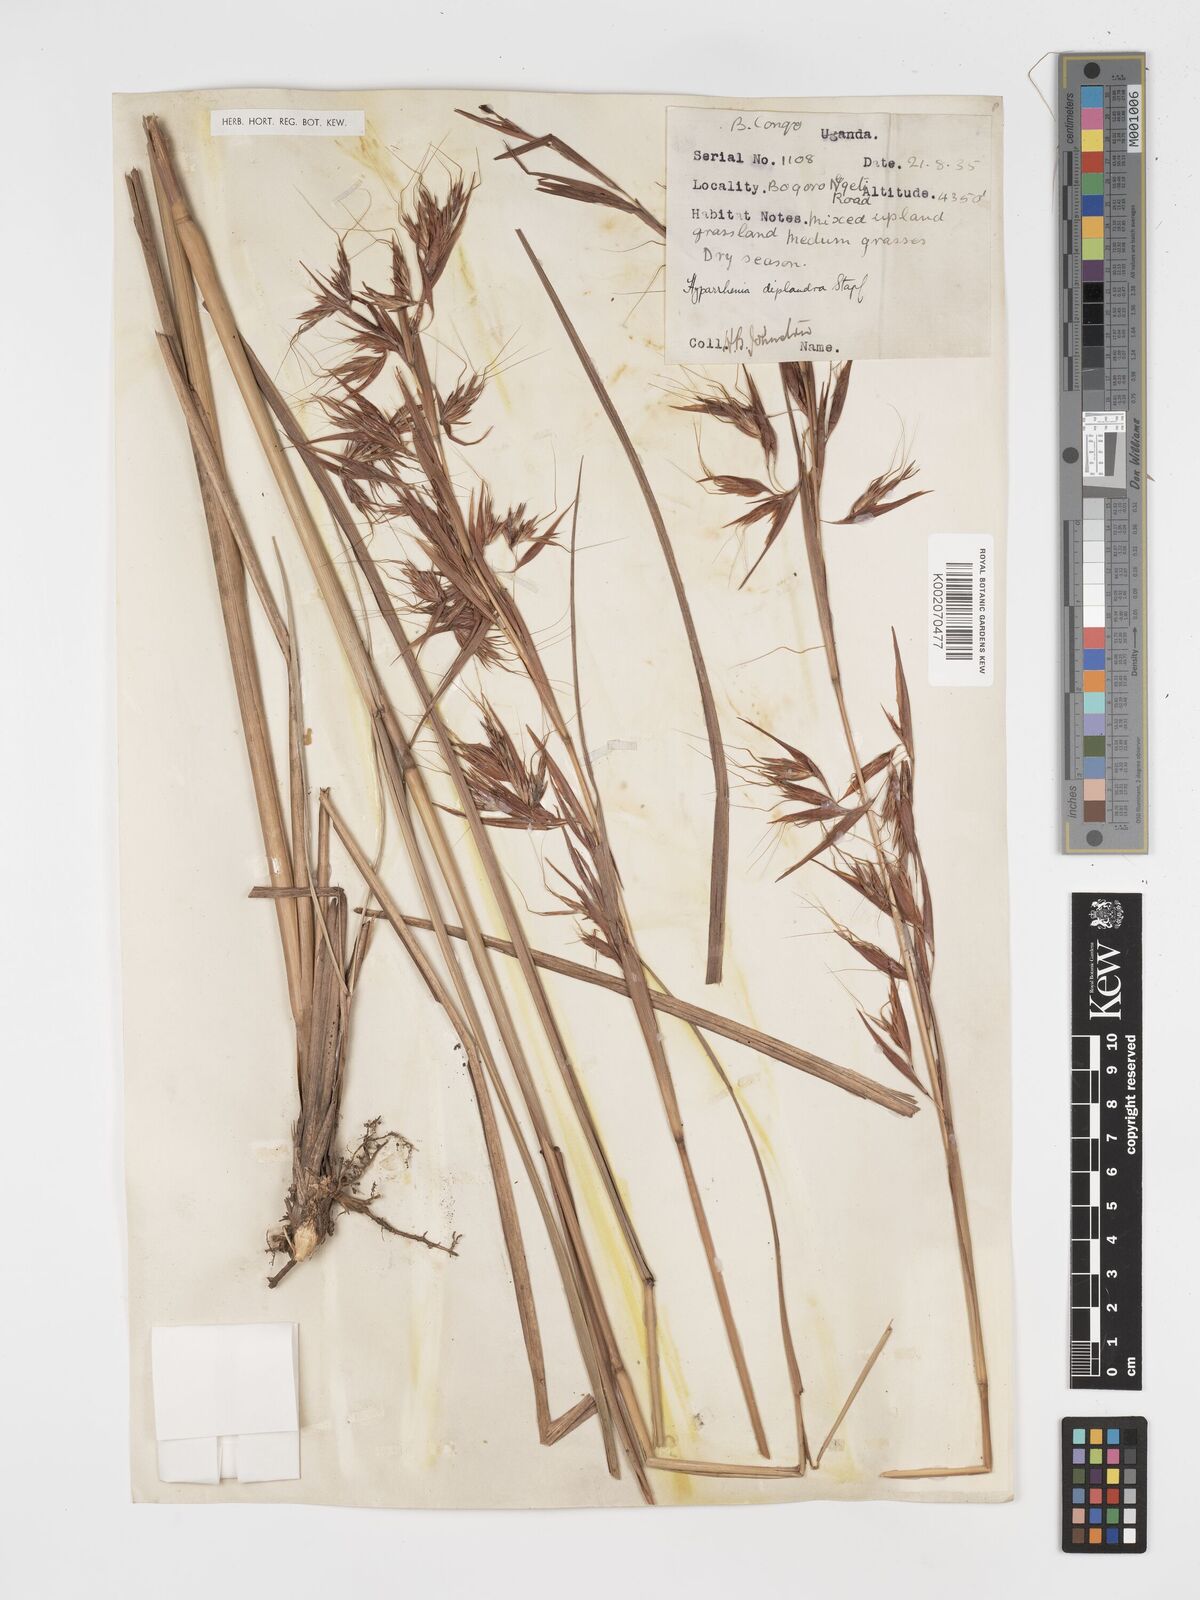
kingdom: Plantae
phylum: Tracheophyta
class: Liliopsida
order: Poales
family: Poaceae
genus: Hyparrhenia
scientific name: Hyparrhenia diplandra
